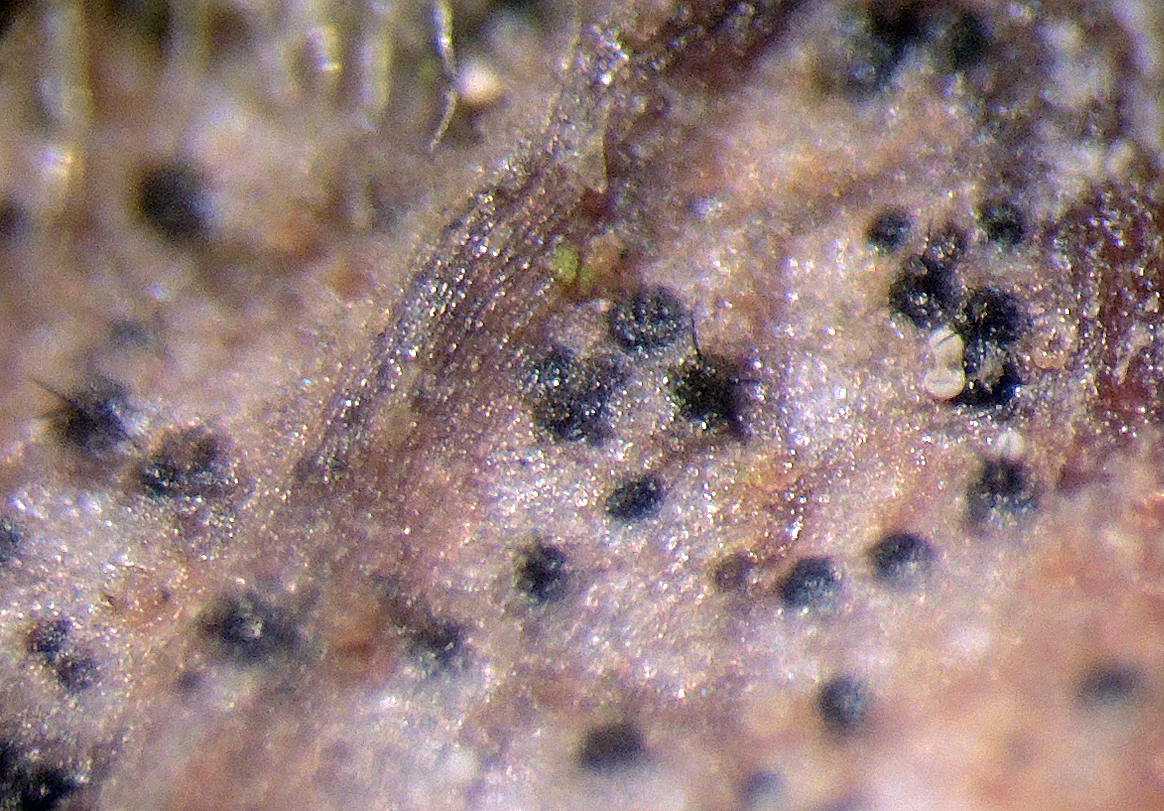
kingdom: Fungi
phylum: Ascomycota
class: Dothideomycetes
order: Venturiales
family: Venturiaceae
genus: Venturia
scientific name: Venturia ditricha
